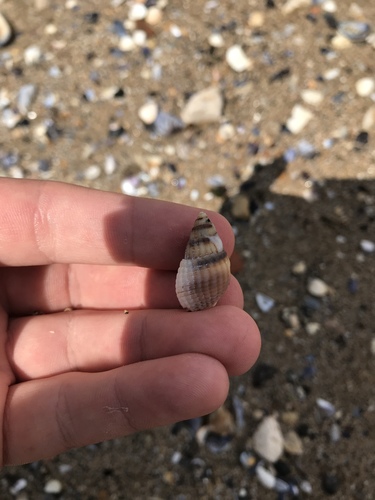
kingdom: Animalia
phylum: Mollusca
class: Gastropoda
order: Neogastropoda
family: Nassariidae
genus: Tritia
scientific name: Tritia reticulata
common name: Netted dog whelk
